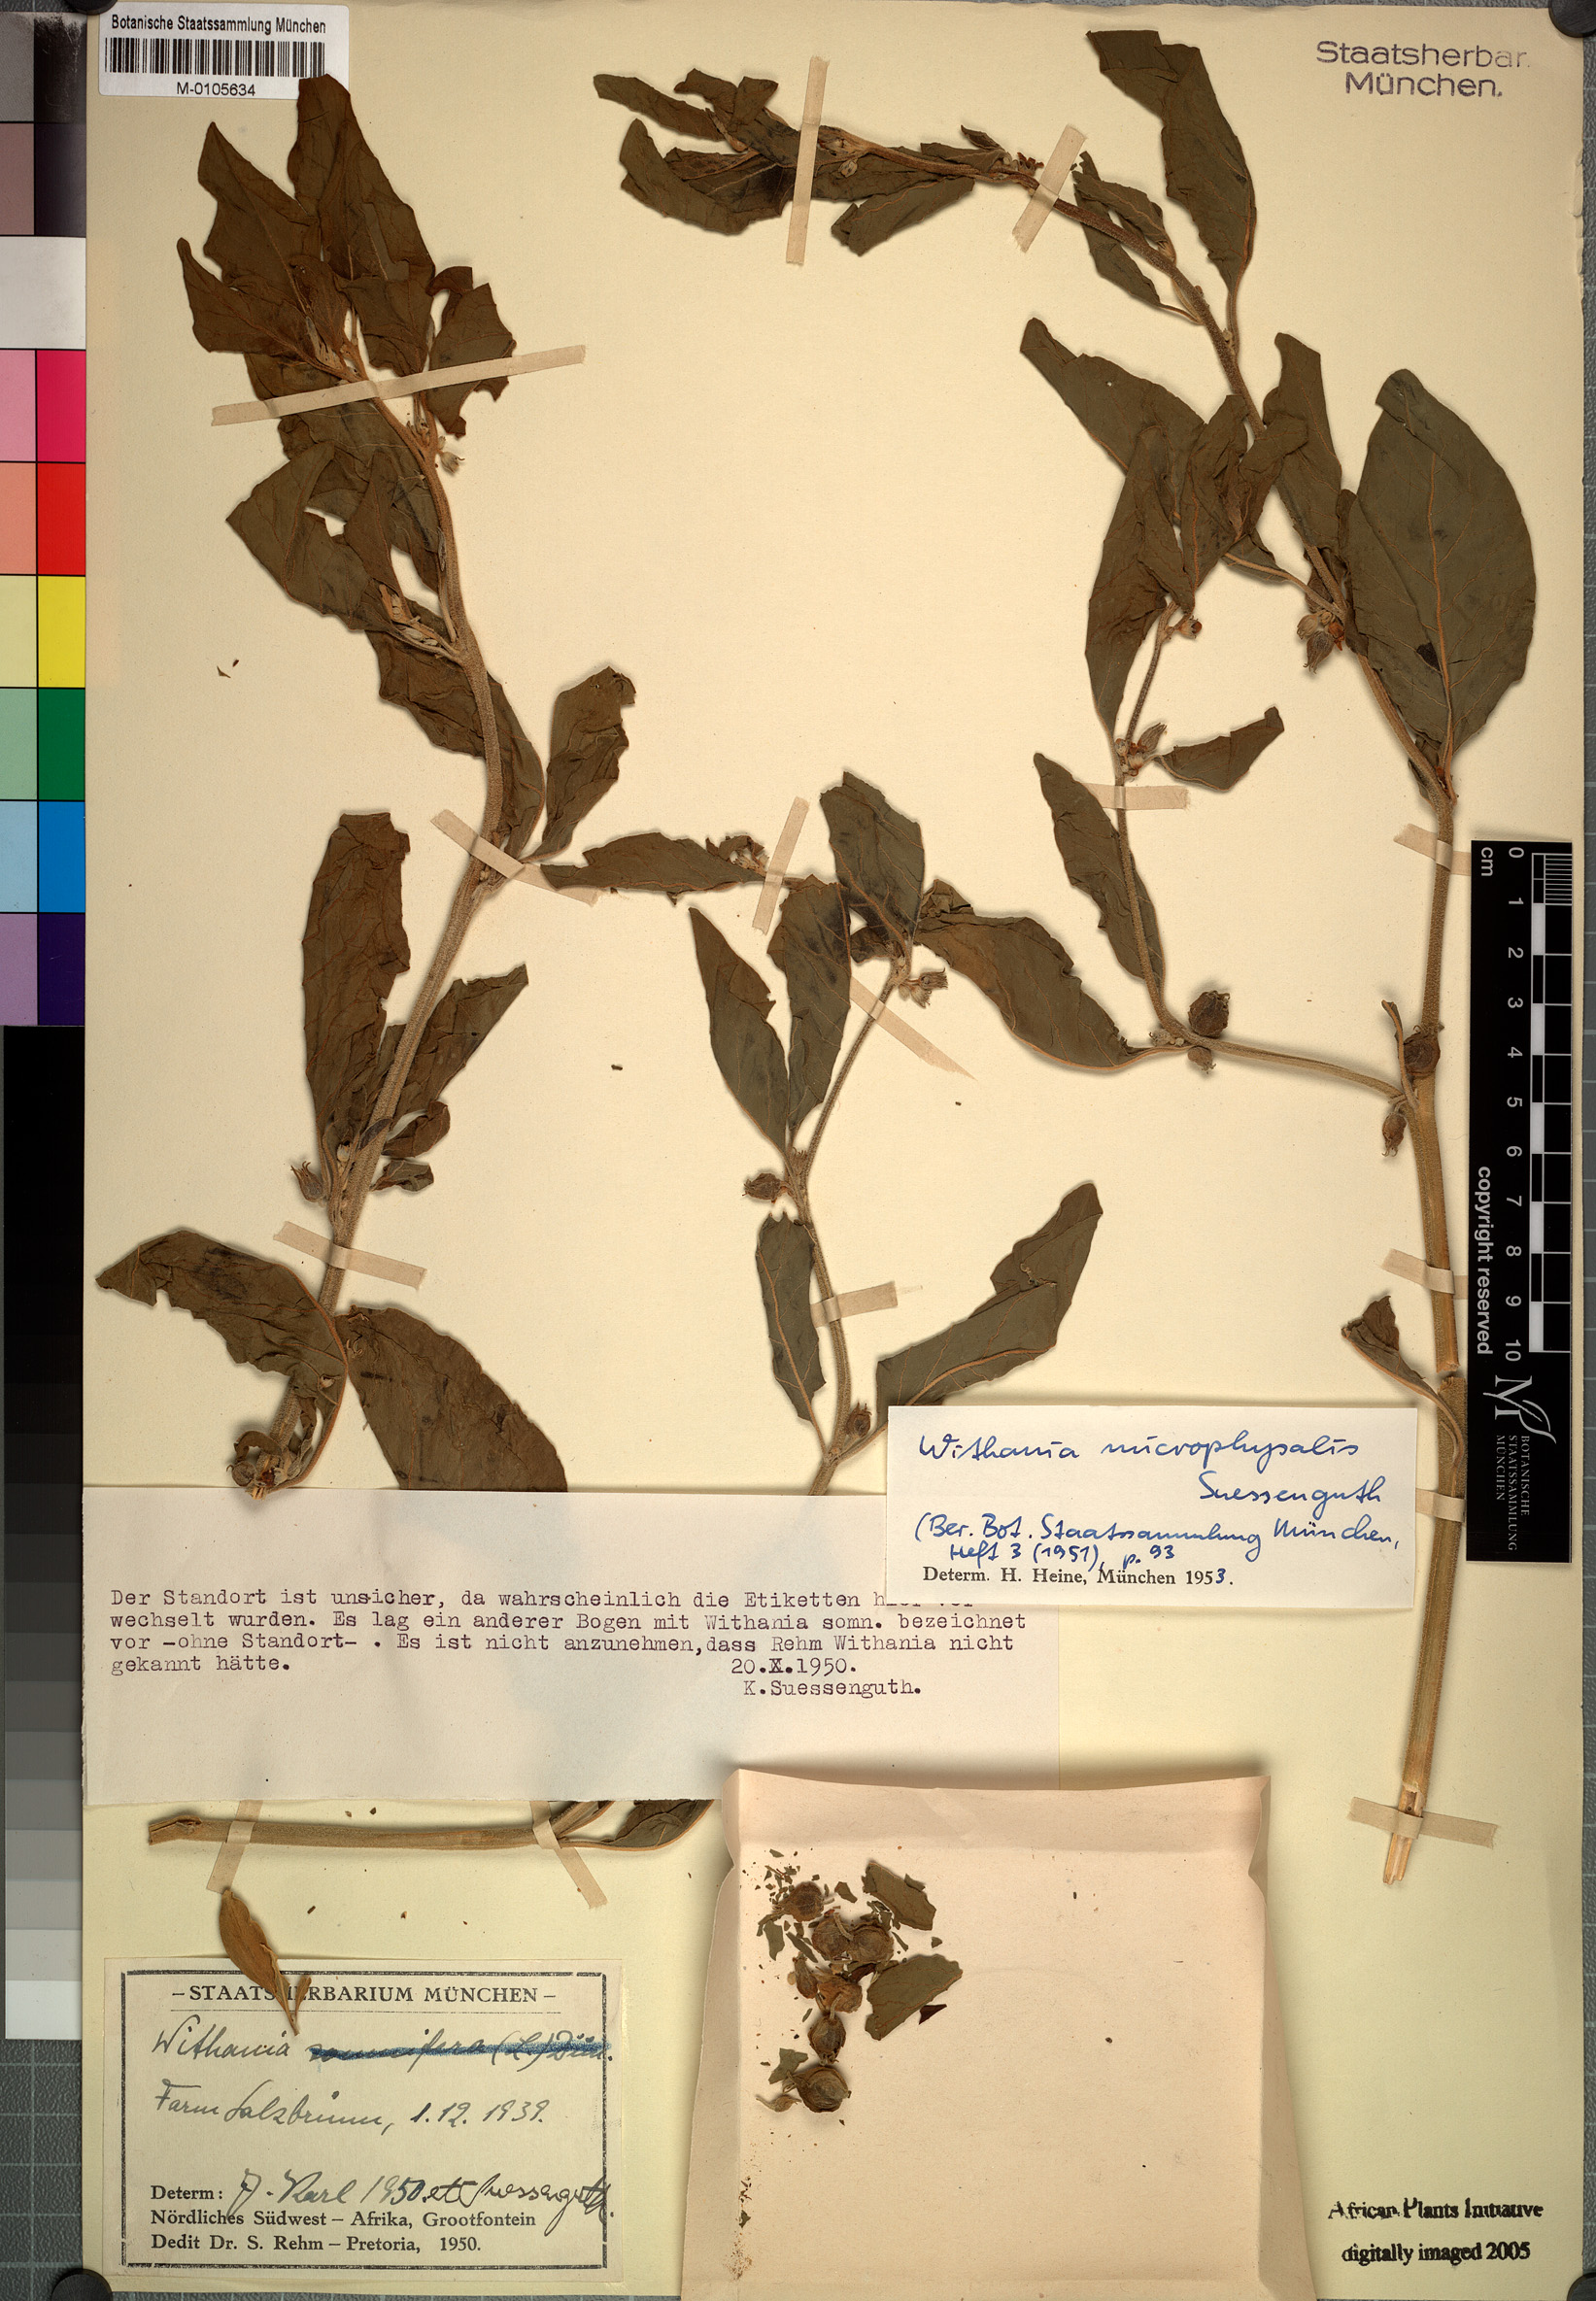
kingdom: Plantae
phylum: Tracheophyta
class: Magnoliopsida
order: Solanales
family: Solanaceae
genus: Withania
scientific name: Withania somnifera
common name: Winter-cherry
